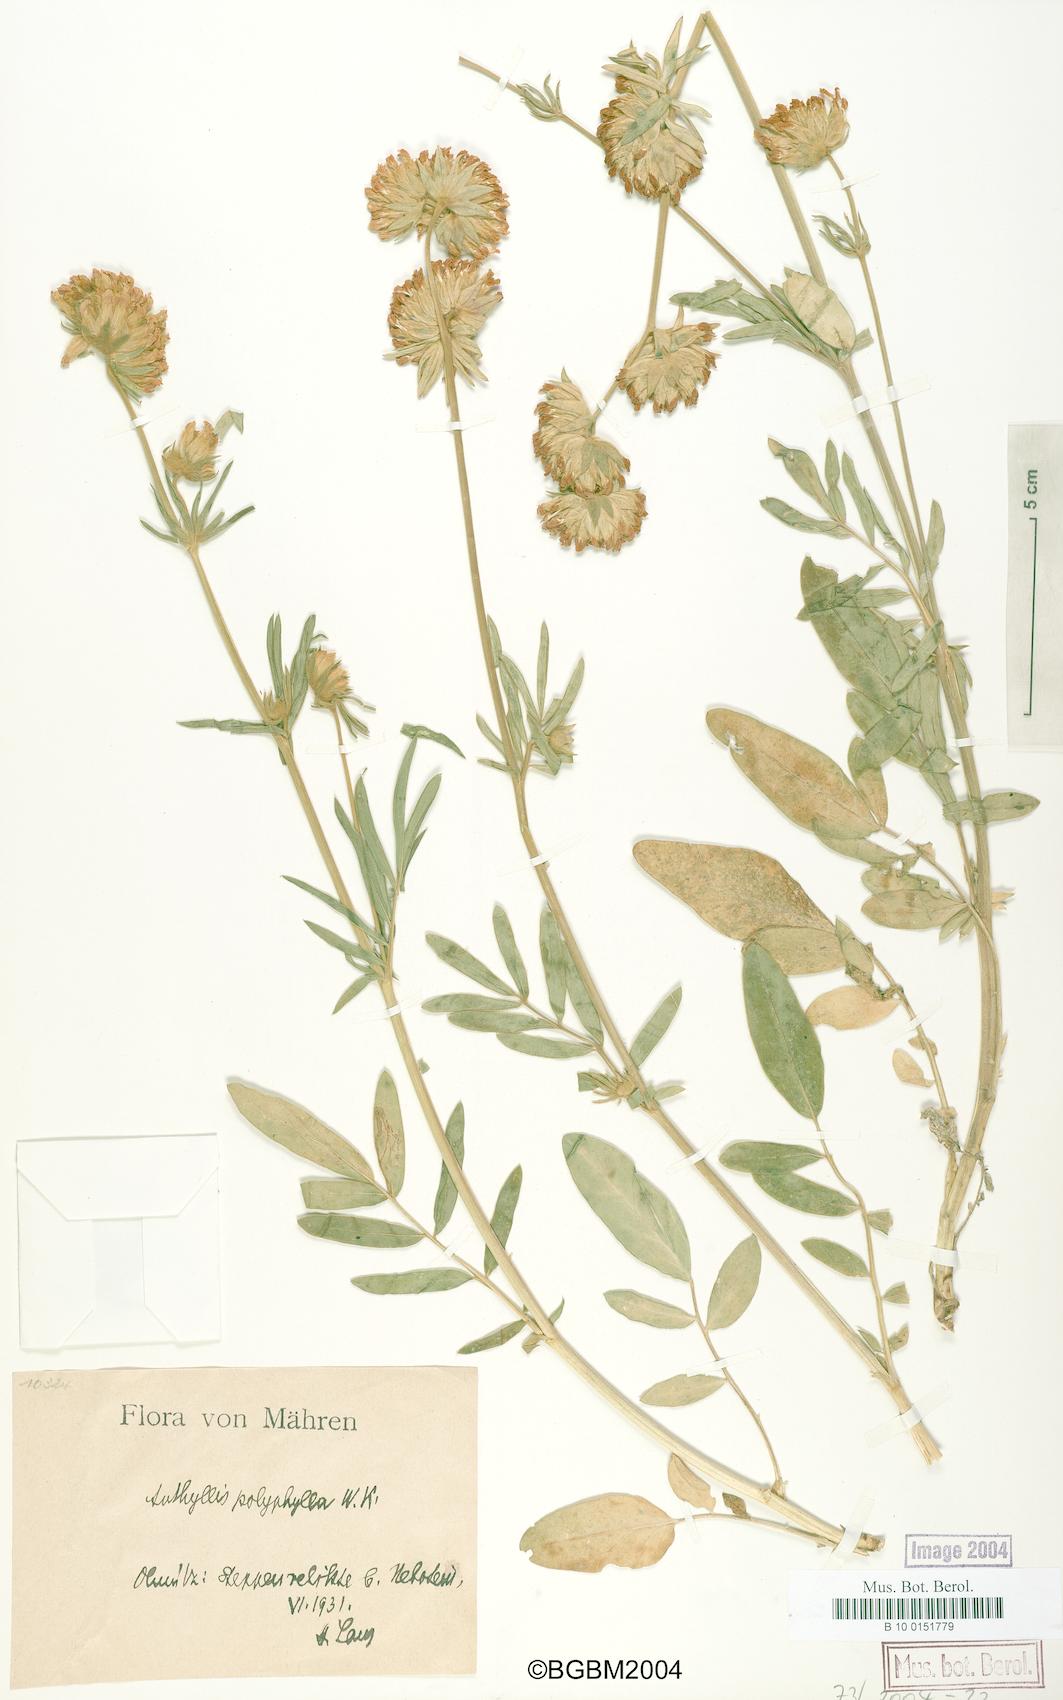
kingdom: Plantae
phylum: Tracheophyta
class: Magnoliopsida
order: Fabales
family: Fabaceae
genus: Anthyllis
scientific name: Anthyllis vulneraria
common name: Kidney vetch
